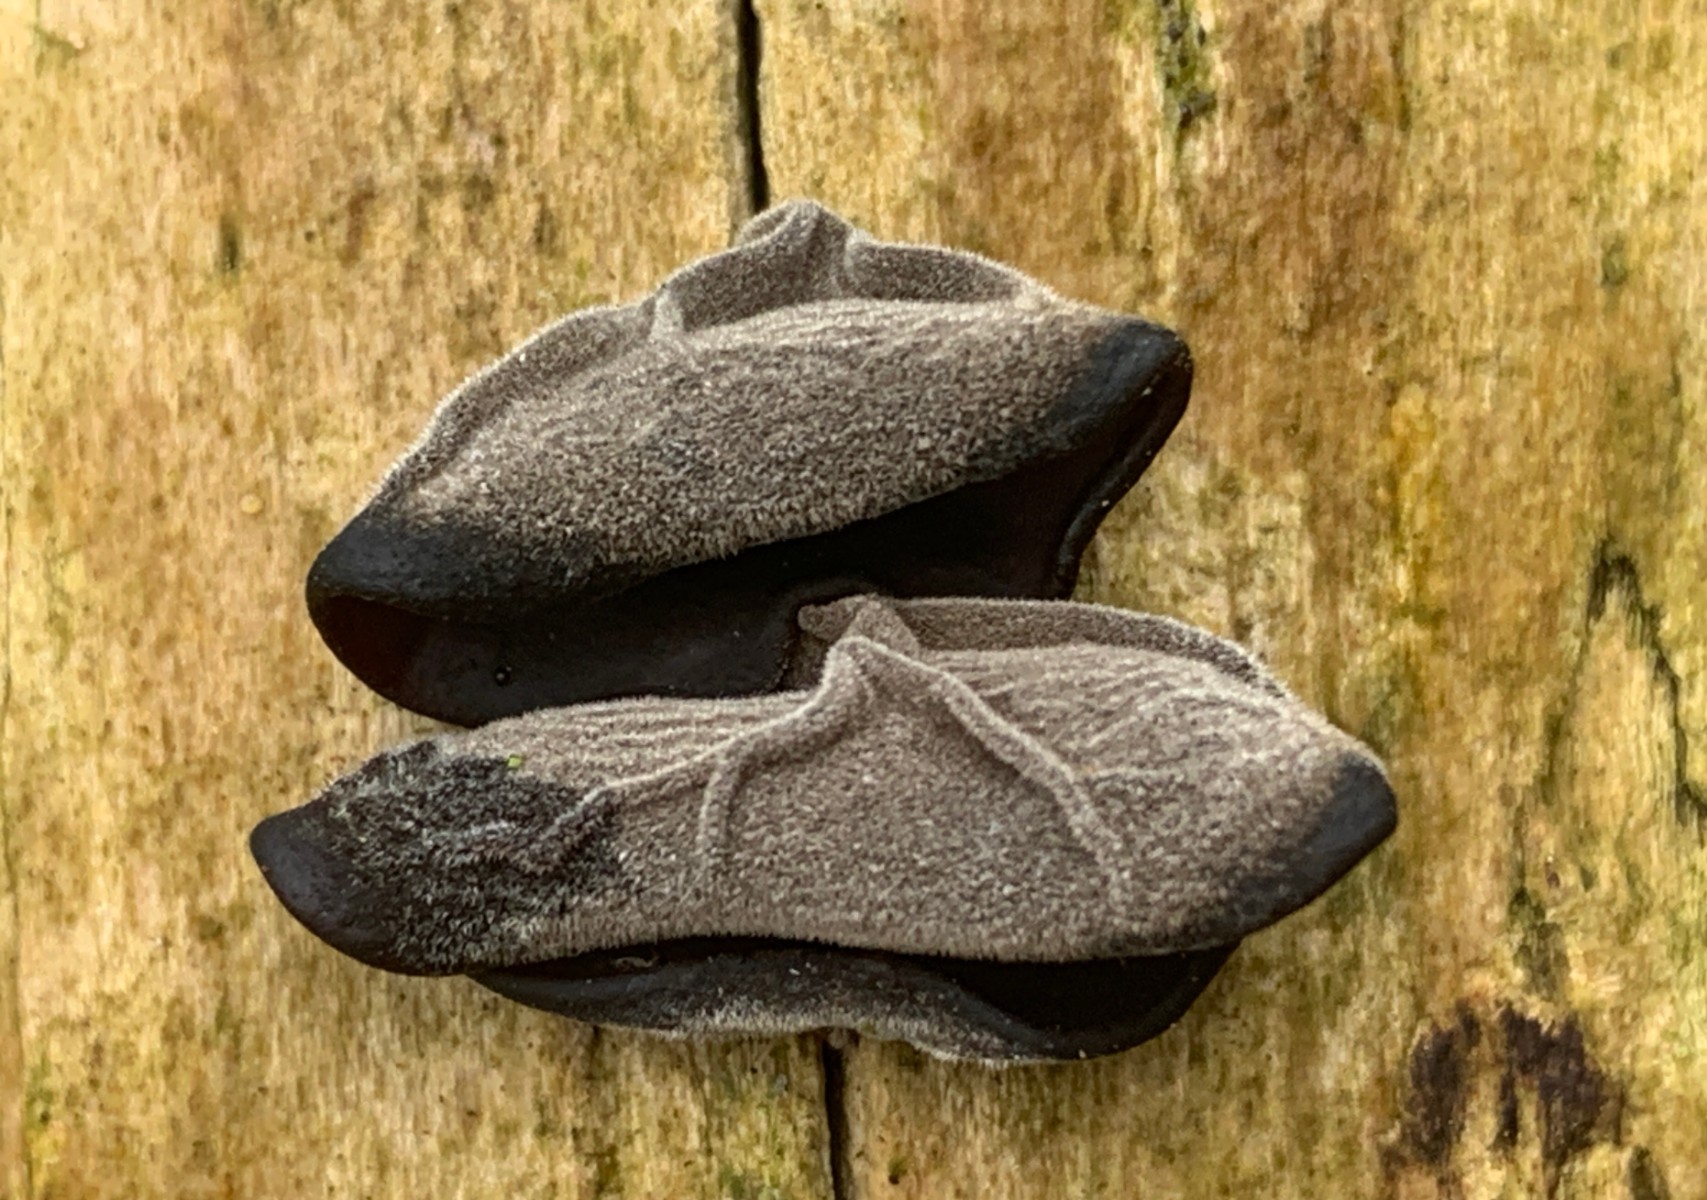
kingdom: Fungi
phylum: Basidiomycota
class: Agaricomycetes
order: Auriculariales
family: Auriculariaceae
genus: Auricularia
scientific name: Auricularia auricula-judae
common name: almindelig judasøre
